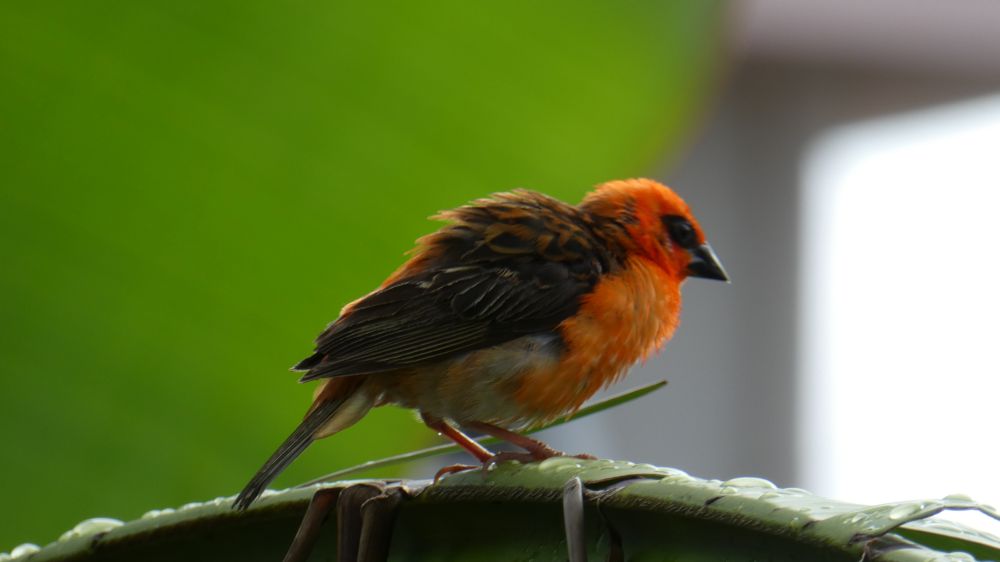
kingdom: Animalia
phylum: Chordata
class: Aves
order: Passeriformes
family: Ploceidae
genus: Foudia
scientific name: Foudia madagascariensis
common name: Red fody
